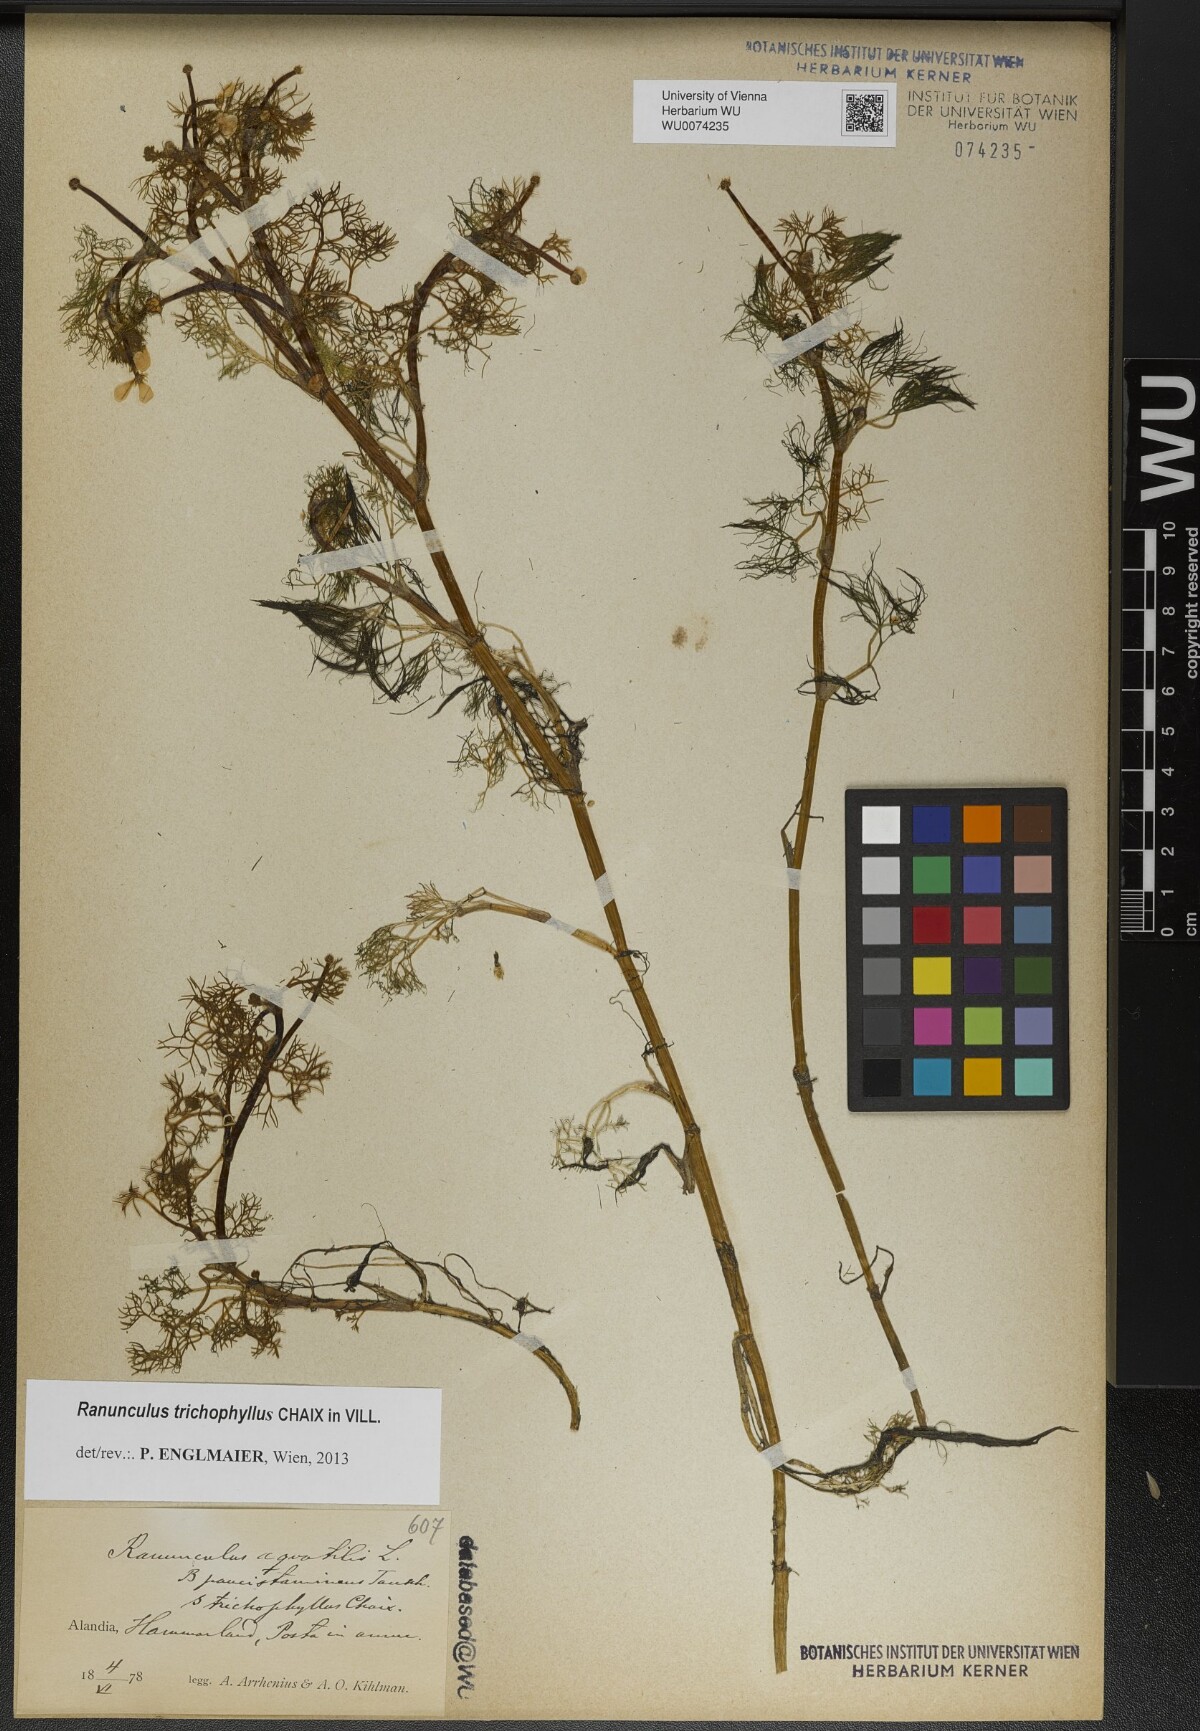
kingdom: Plantae
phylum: Tracheophyta
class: Magnoliopsida
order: Ranunculales
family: Ranunculaceae
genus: Ranunculus
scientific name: Ranunculus trichophyllus
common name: Thread-leaved water-crowfoot
